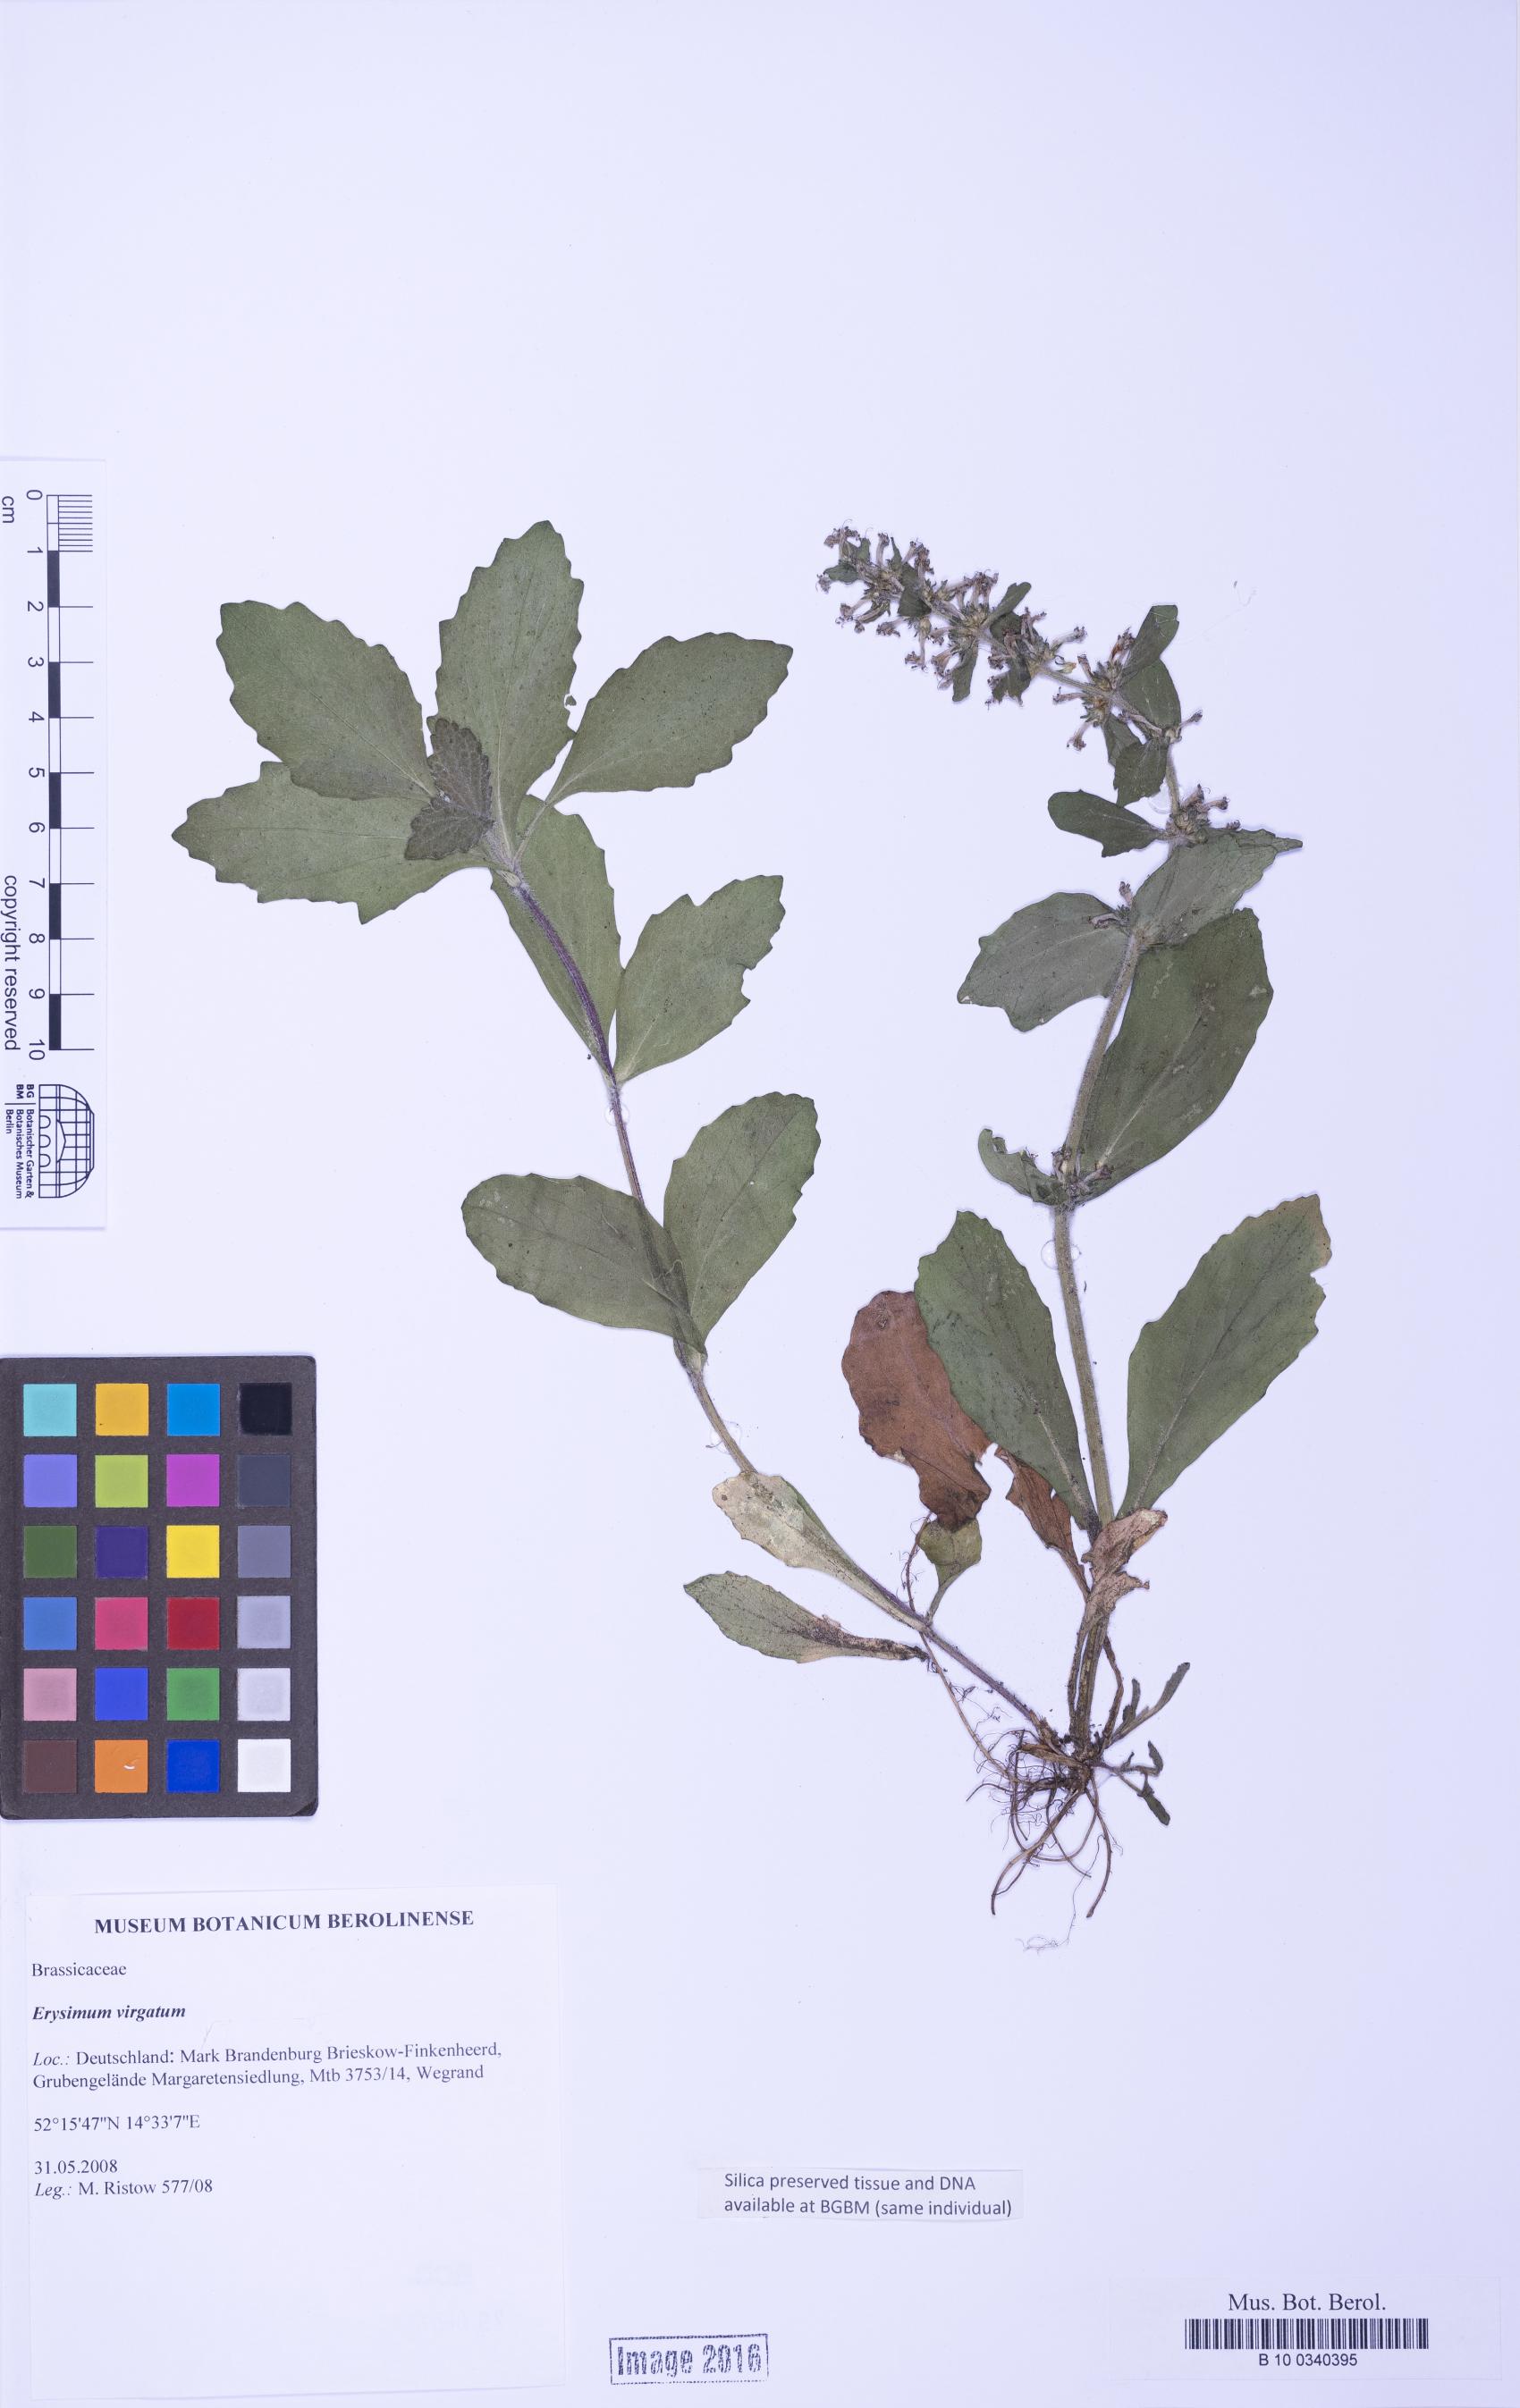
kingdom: Plantae
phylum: Tracheophyta
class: Magnoliopsida
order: Lamiales
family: Lamiaceae
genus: Ajuga
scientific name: Ajuga
